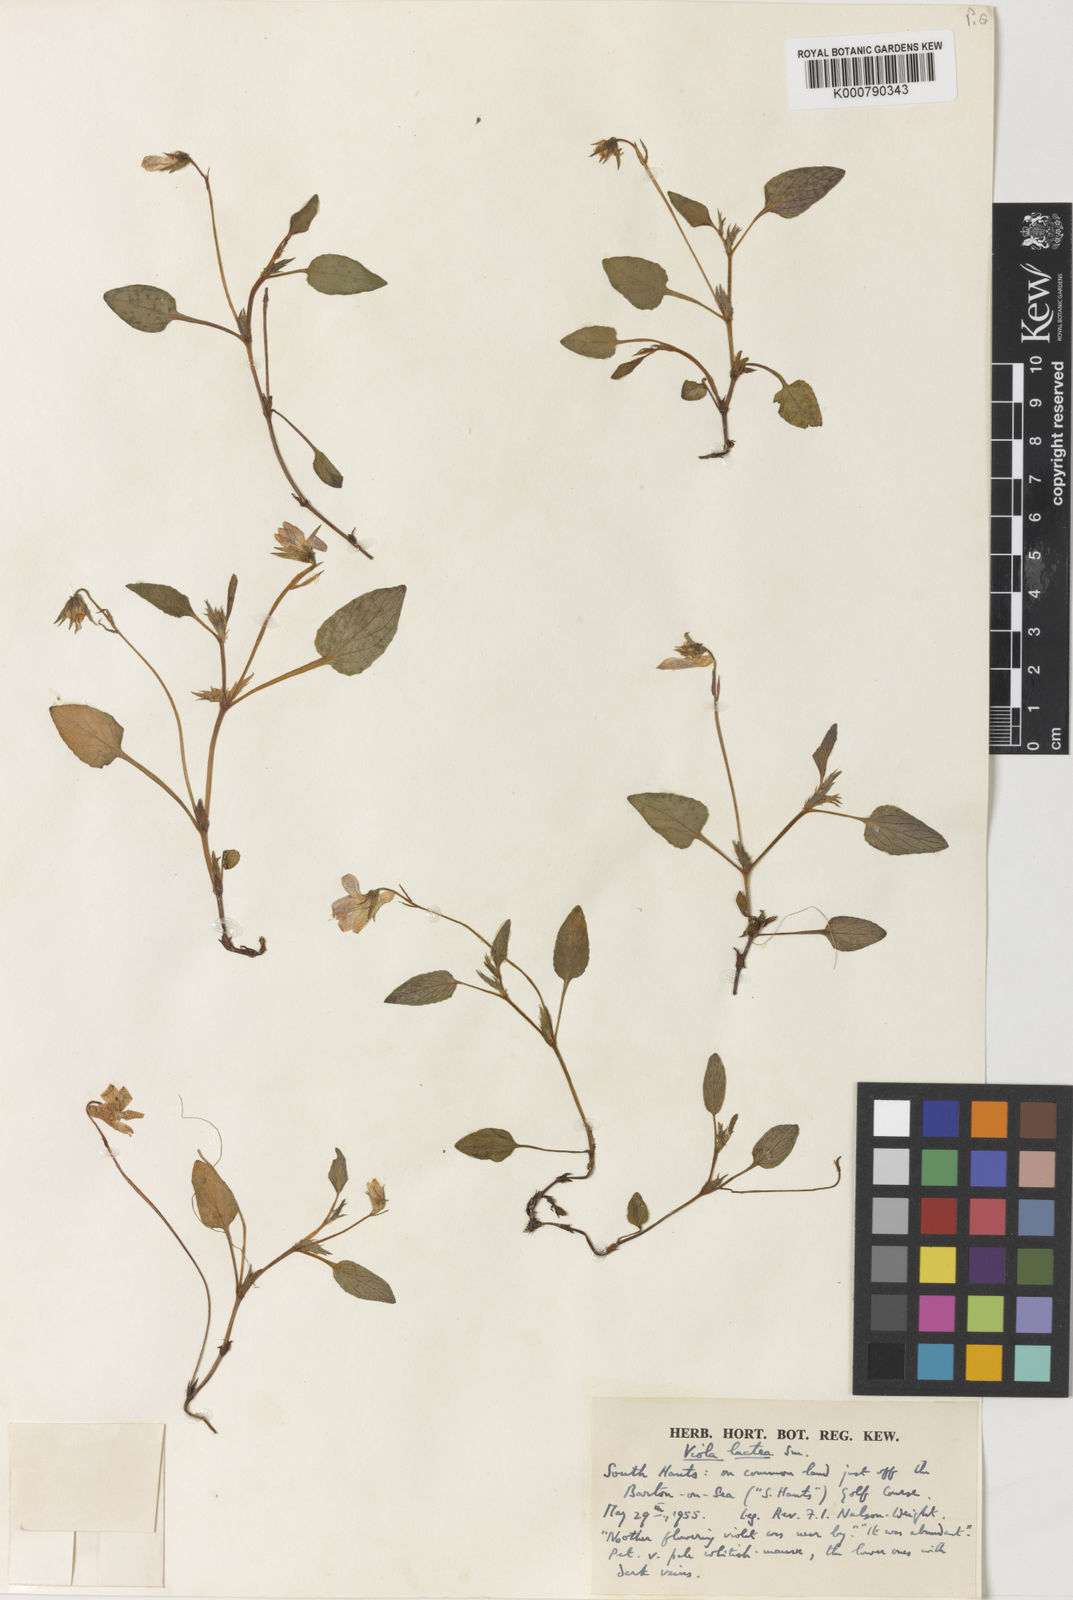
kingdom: Plantae
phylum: Tracheophyta
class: Magnoliopsida
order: Malpighiales
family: Violaceae
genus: Viola
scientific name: Viola lactea
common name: Pale dog-violet
